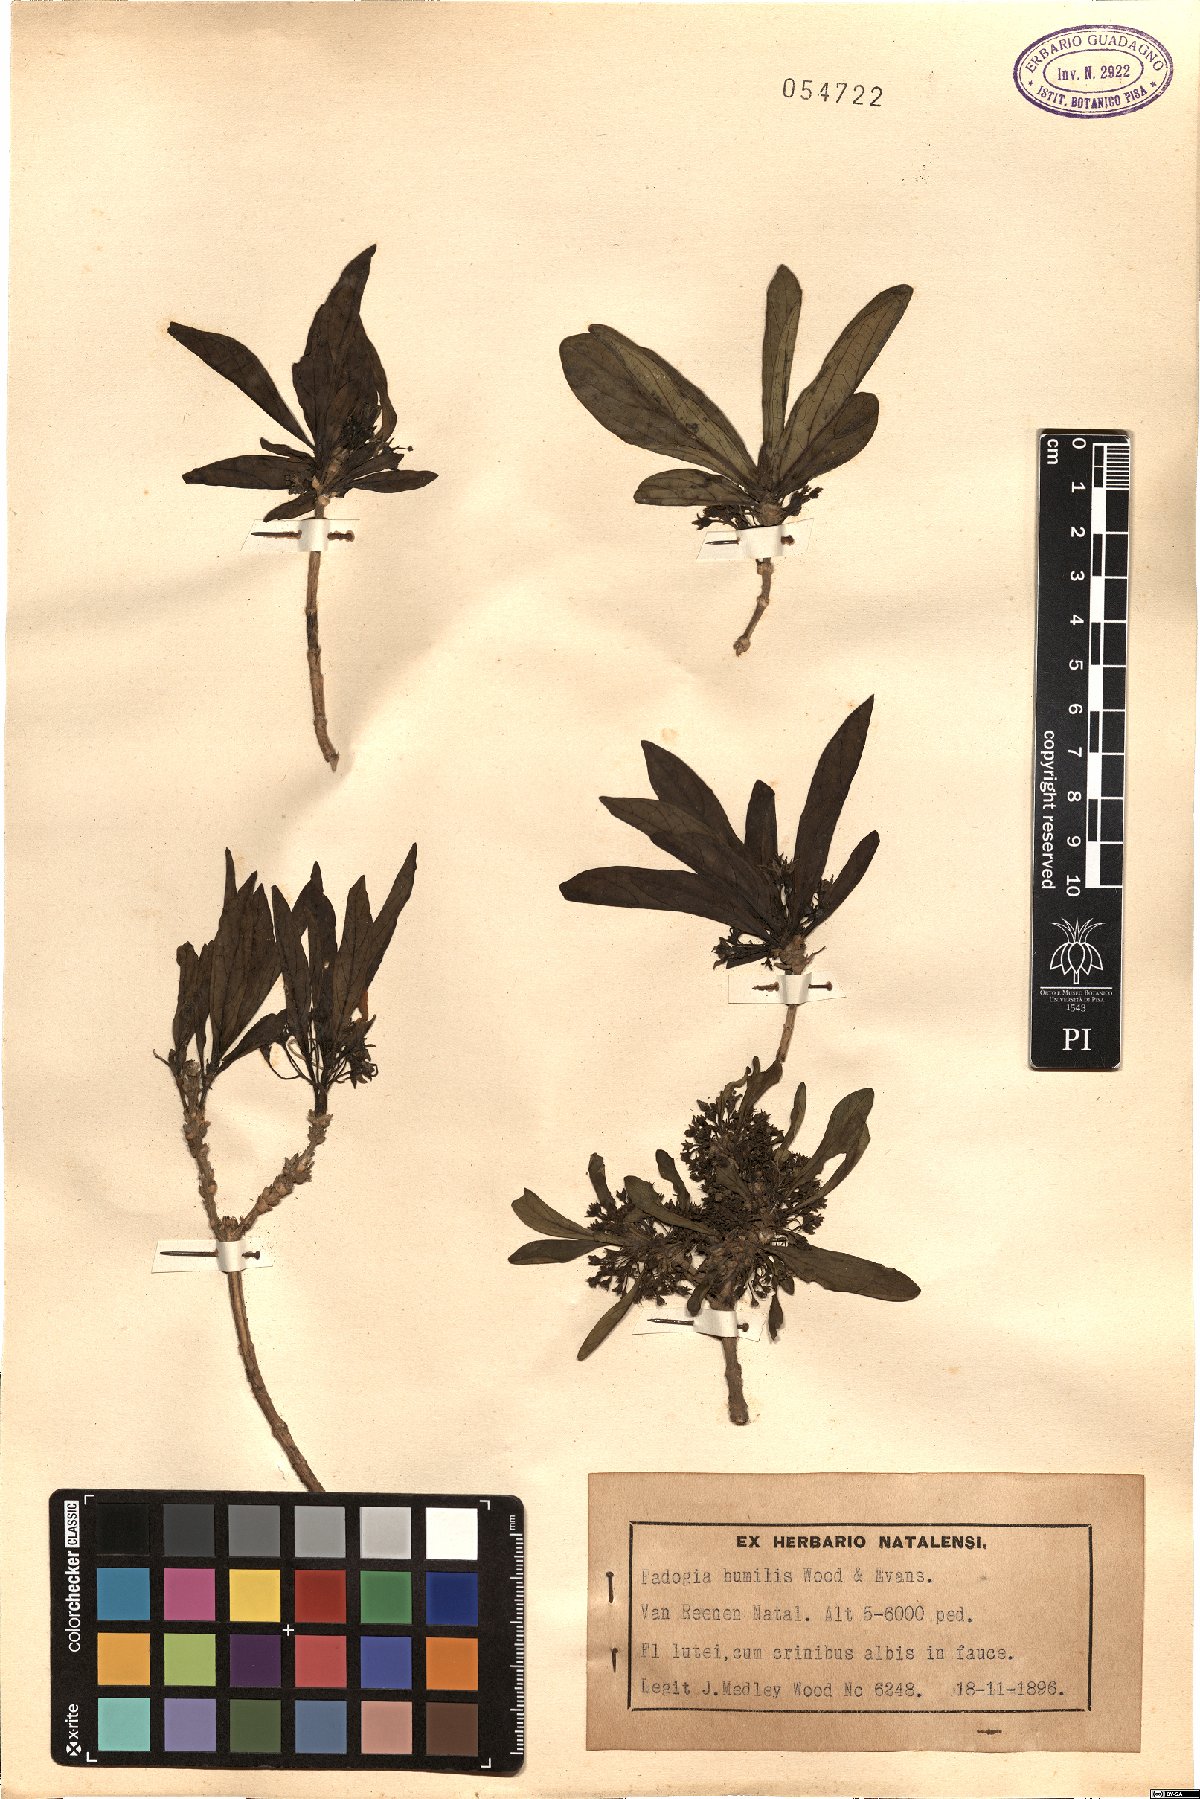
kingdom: Plantae
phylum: Tracheophyta
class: Magnoliopsida
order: Gentianales
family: Rubiaceae
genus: Bridsonia
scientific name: Bridsonia chamaedendrum
